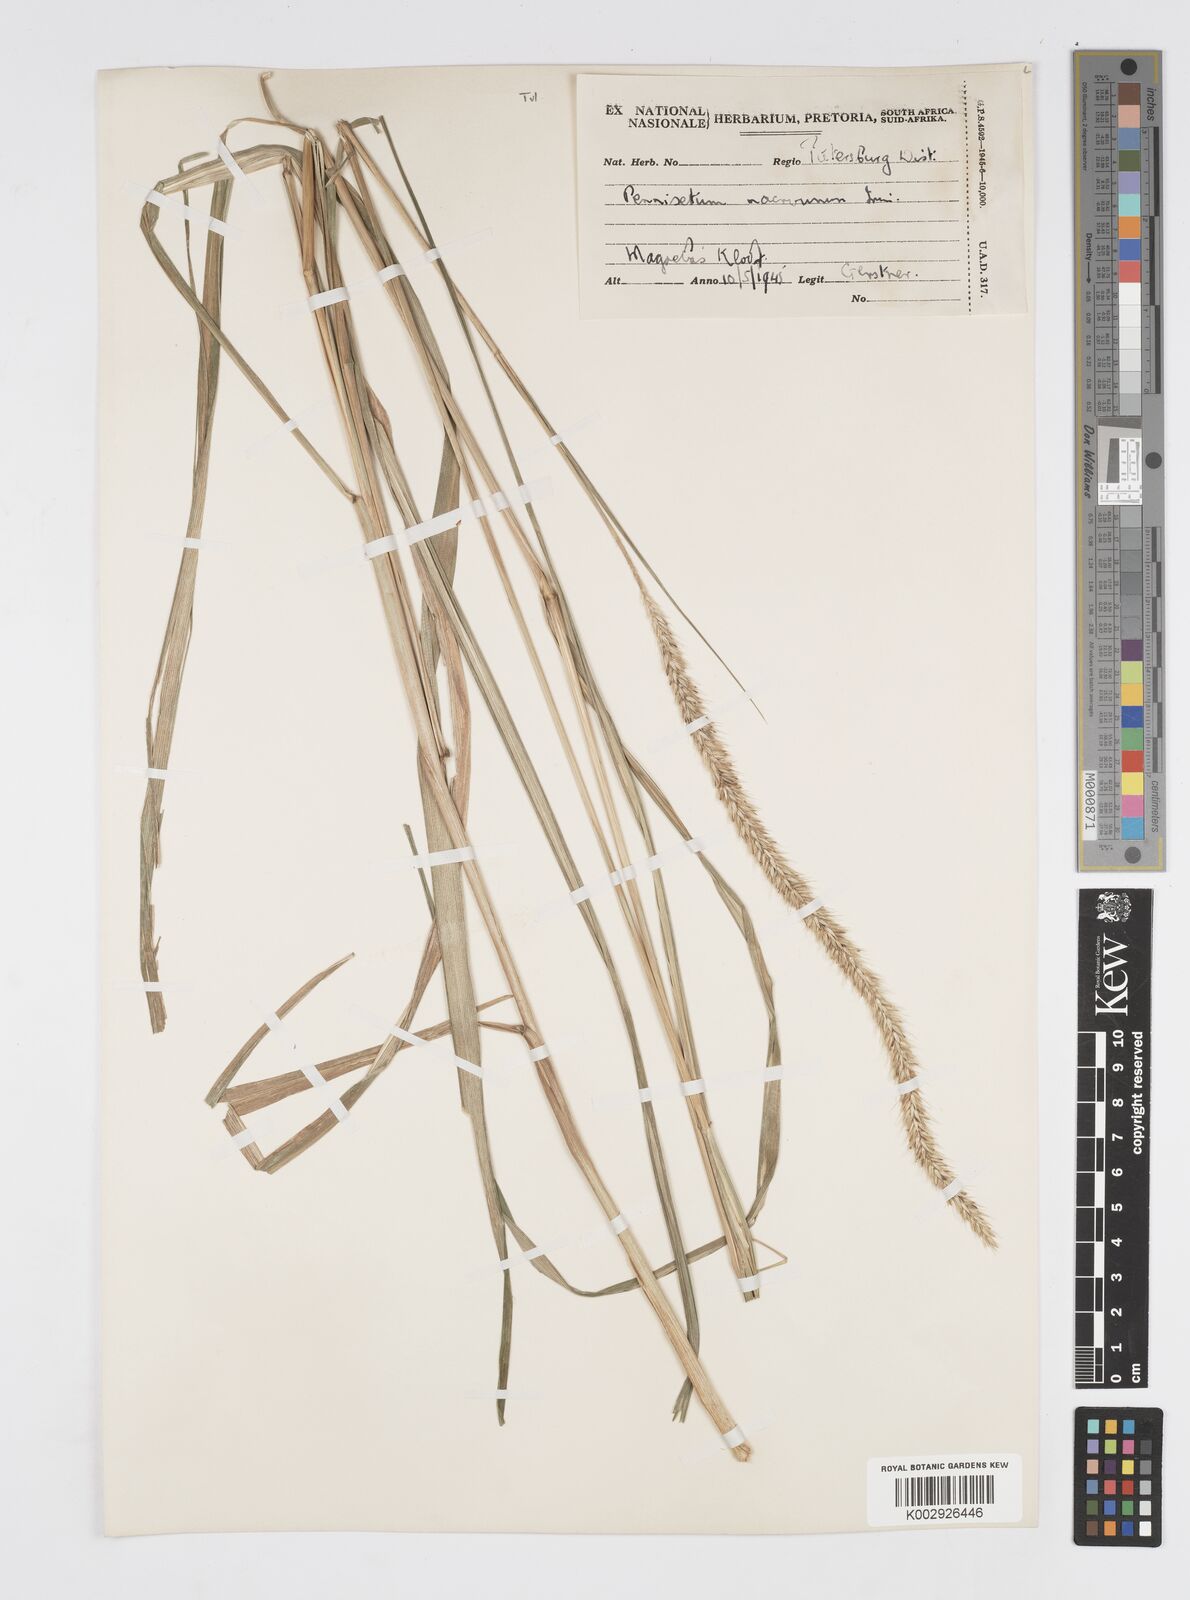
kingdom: Plantae
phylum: Tracheophyta
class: Liliopsida
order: Poales
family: Poaceae
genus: Cenchrus
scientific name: Cenchrus caudatus
